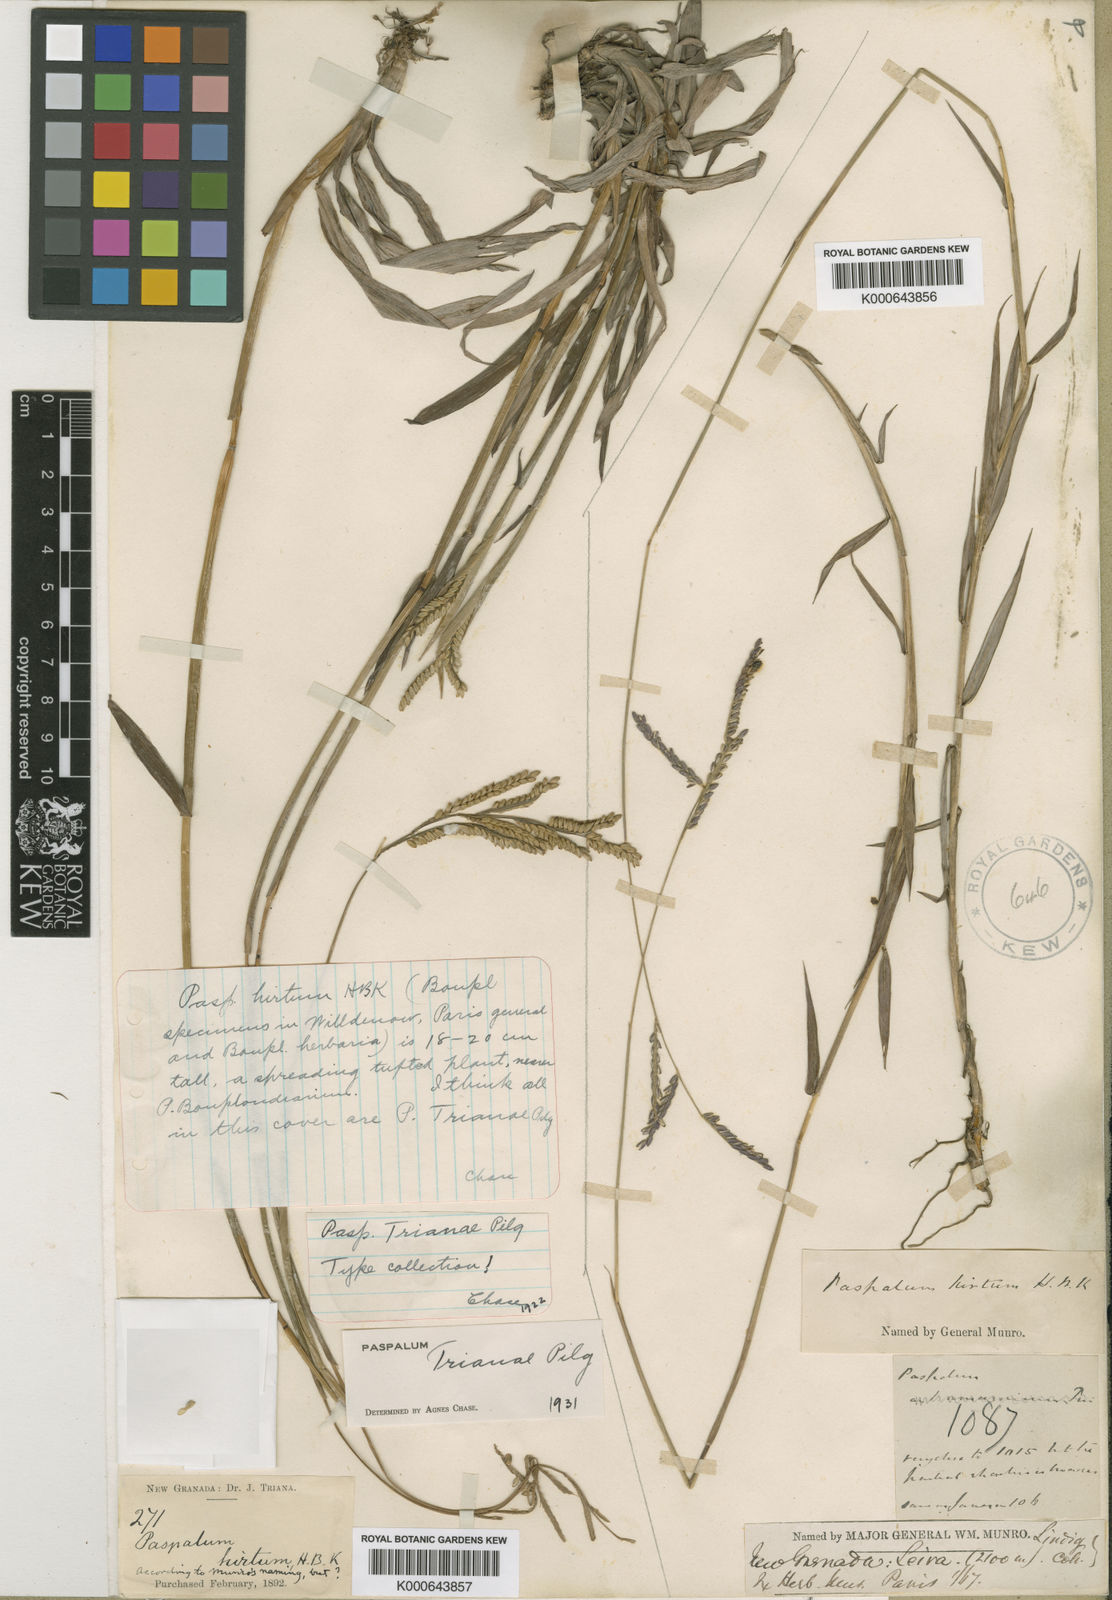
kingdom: Plantae
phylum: Tracheophyta
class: Liliopsida
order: Poales
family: Poaceae
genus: Paspalum
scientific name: Paspalum trianae
